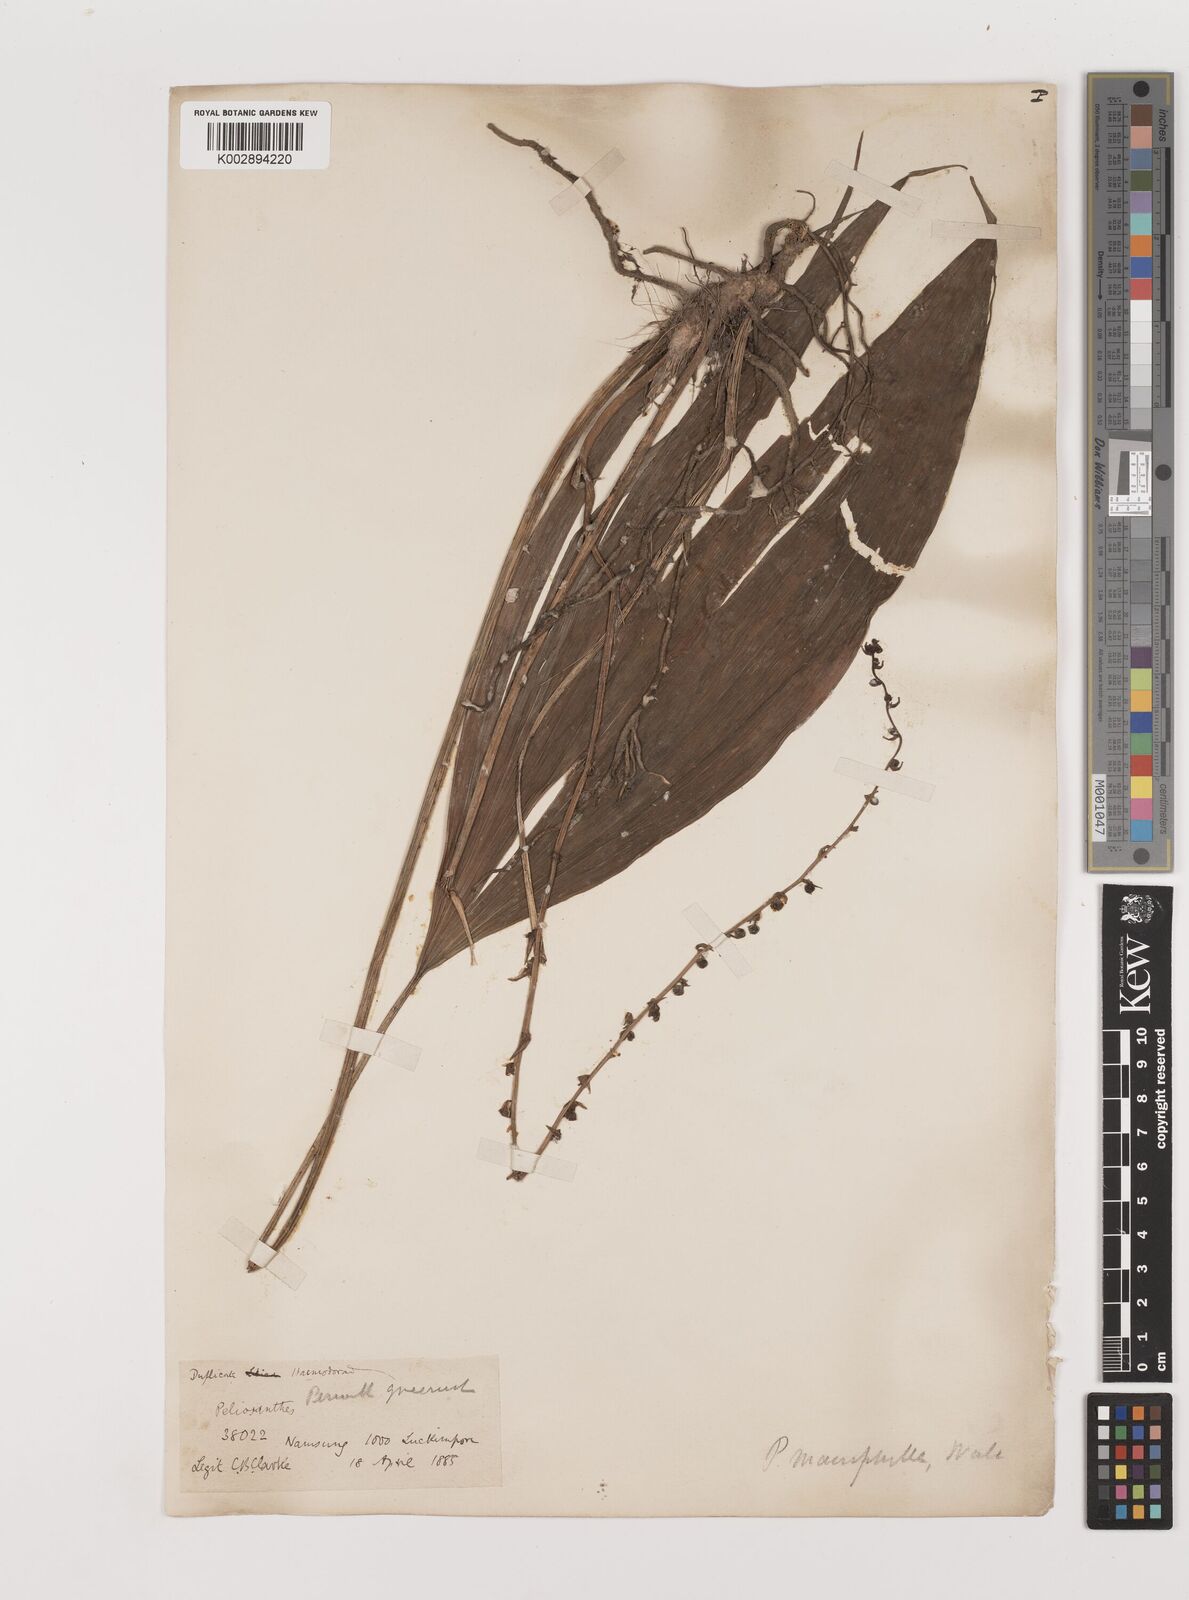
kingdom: Plantae
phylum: Tracheophyta
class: Liliopsida
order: Asparagales
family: Asparagaceae
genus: Peliosanthes
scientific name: Peliosanthes teta
